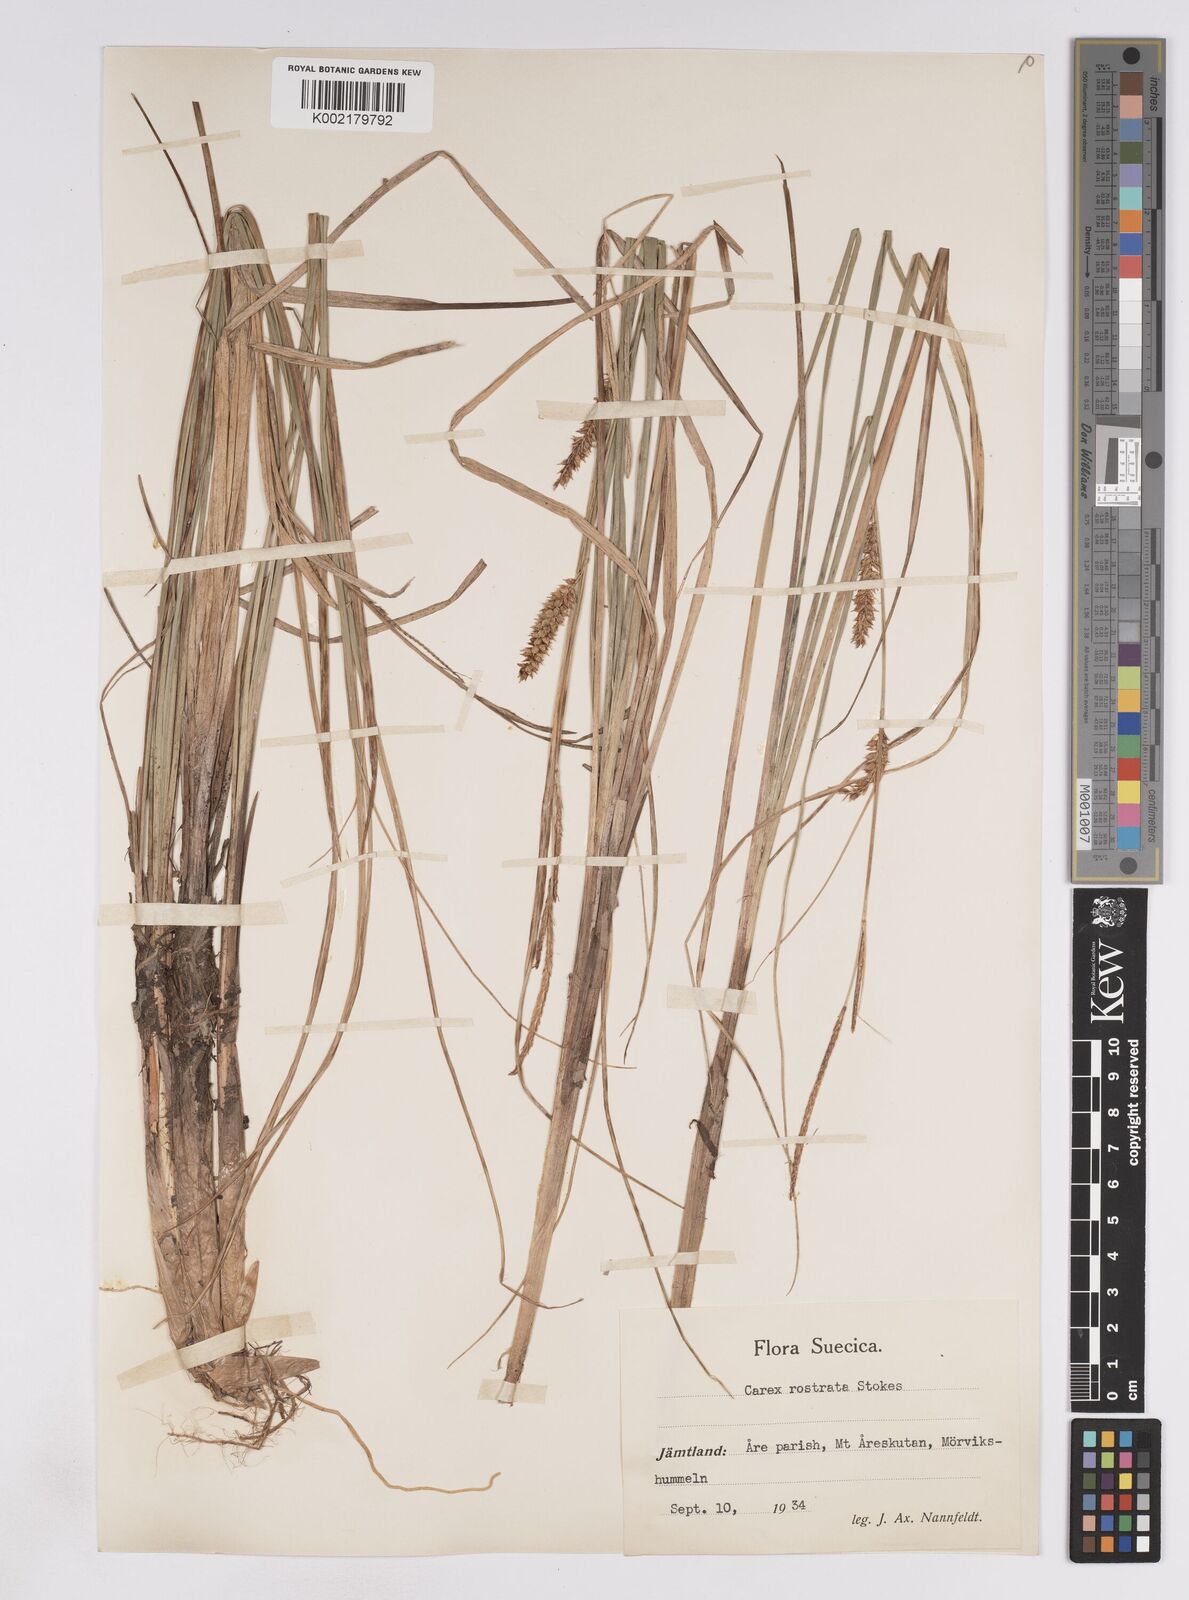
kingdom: Plantae
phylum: Tracheophyta
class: Liliopsida
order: Poales
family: Cyperaceae
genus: Carex
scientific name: Carex rostrata
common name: Bottle sedge
